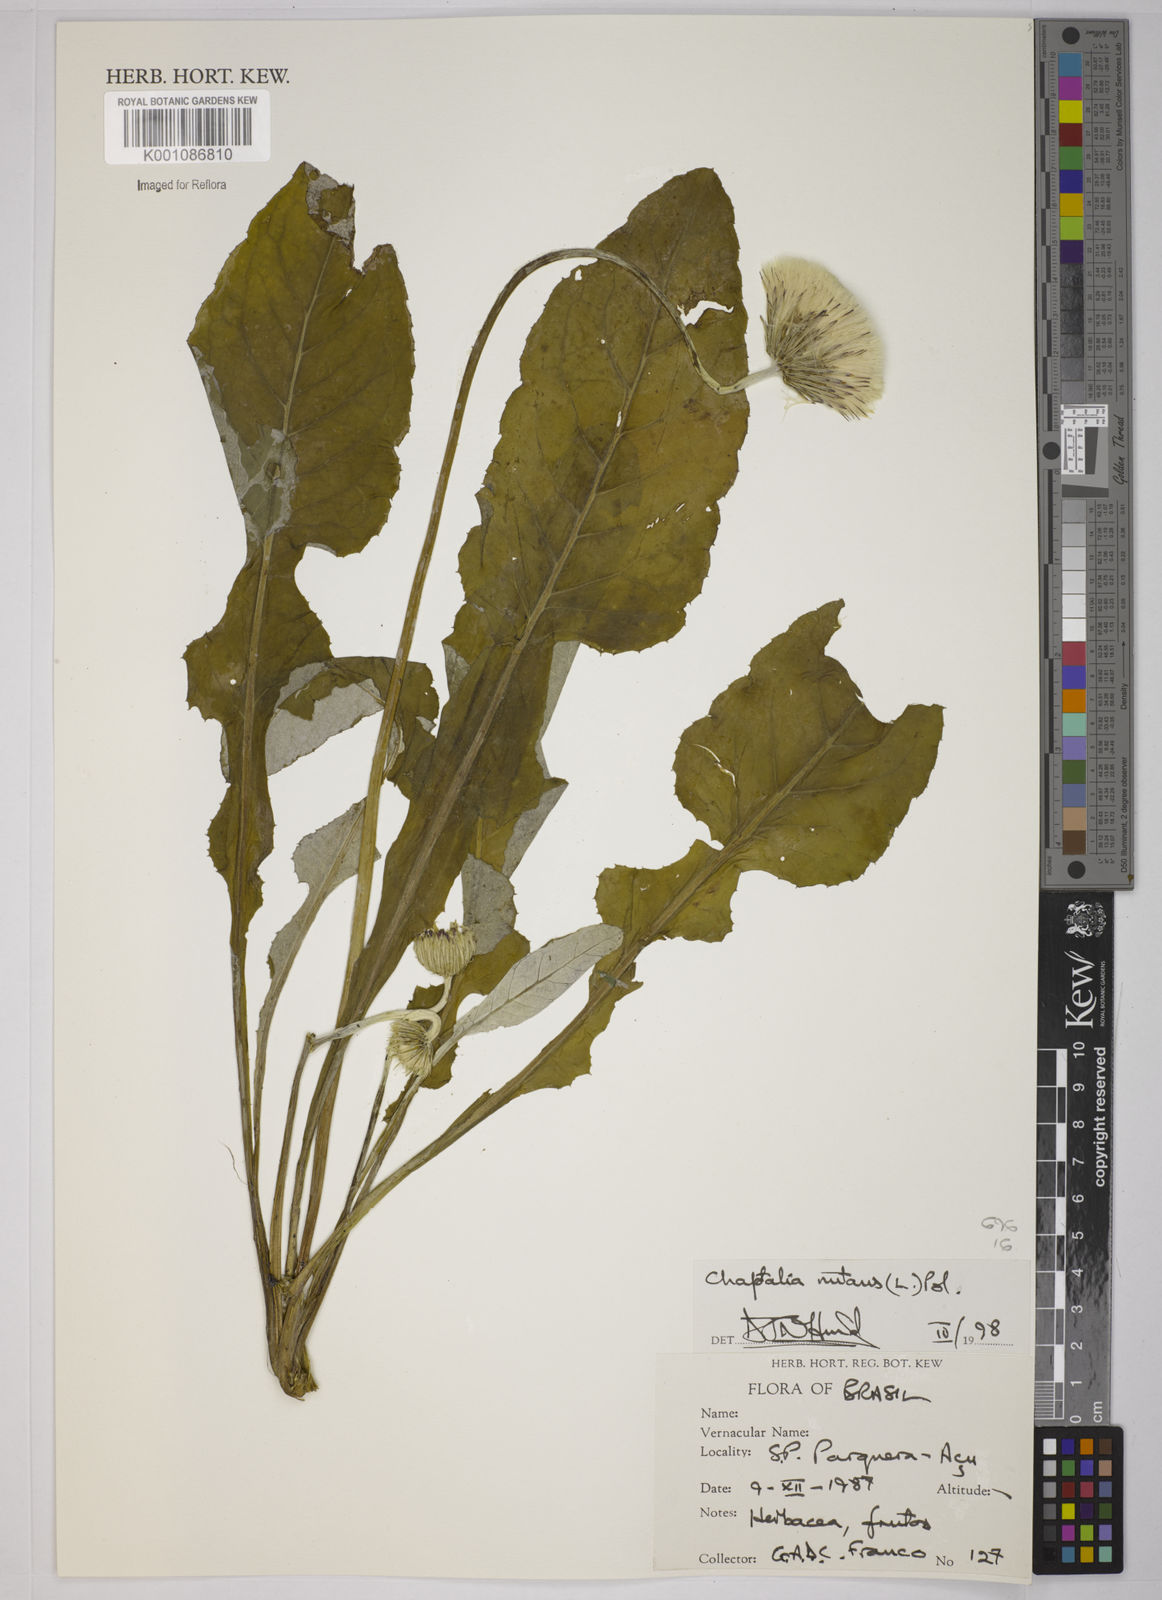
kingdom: Plantae
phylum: Tracheophyta
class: Magnoliopsida
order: Asterales
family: Asteraceae
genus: Chaptalia
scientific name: Chaptalia nutans
